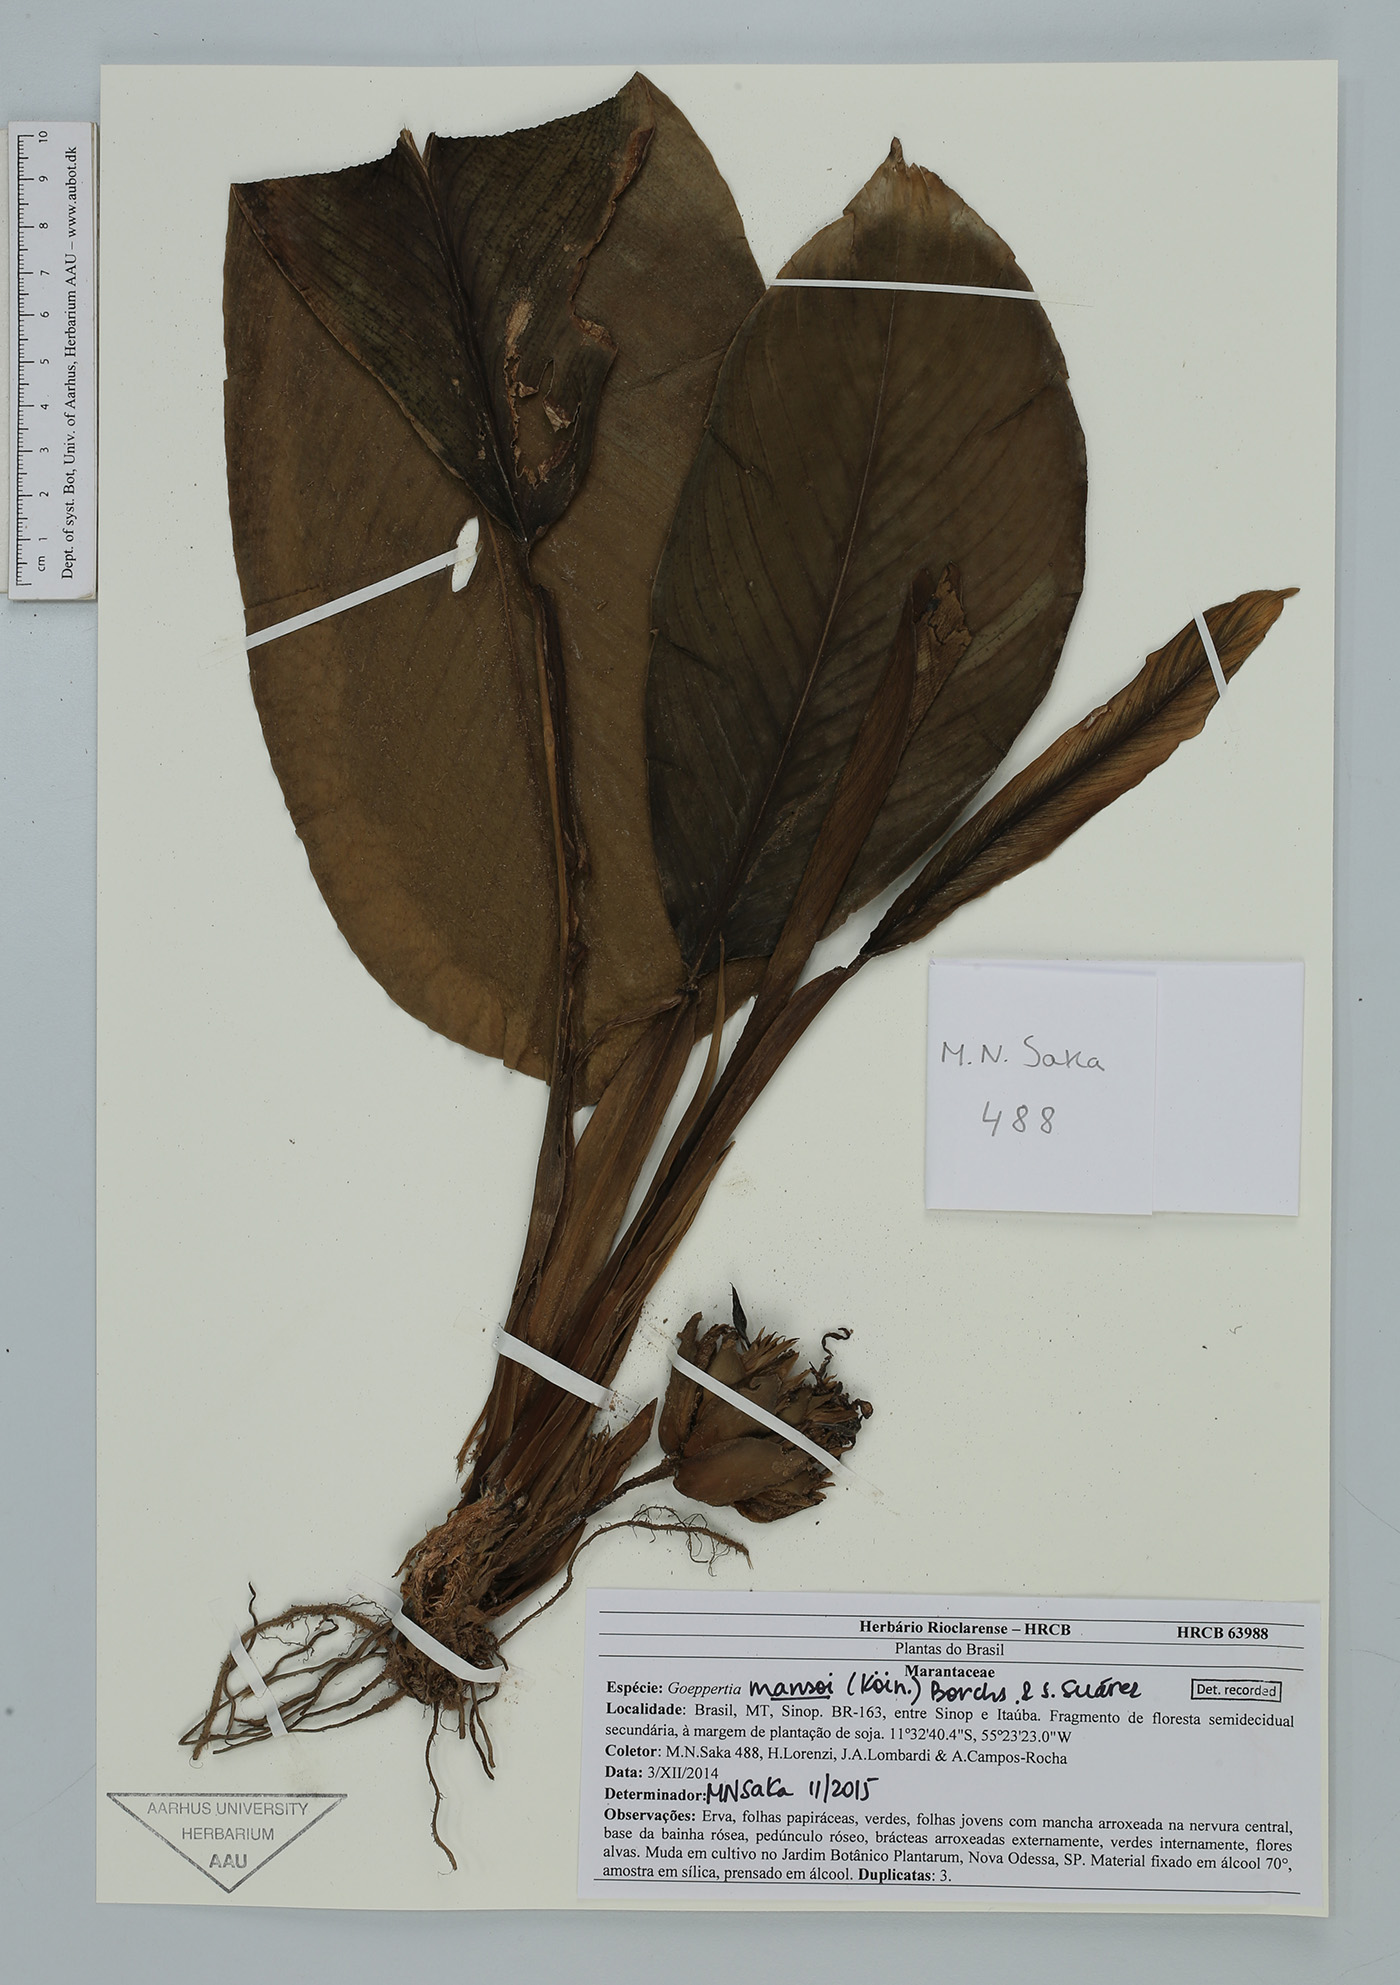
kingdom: Plantae
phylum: Tracheophyta
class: Liliopsida
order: Zingiberales
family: Marantaceae
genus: Goeppertia
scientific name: Goeppertia mansoi
